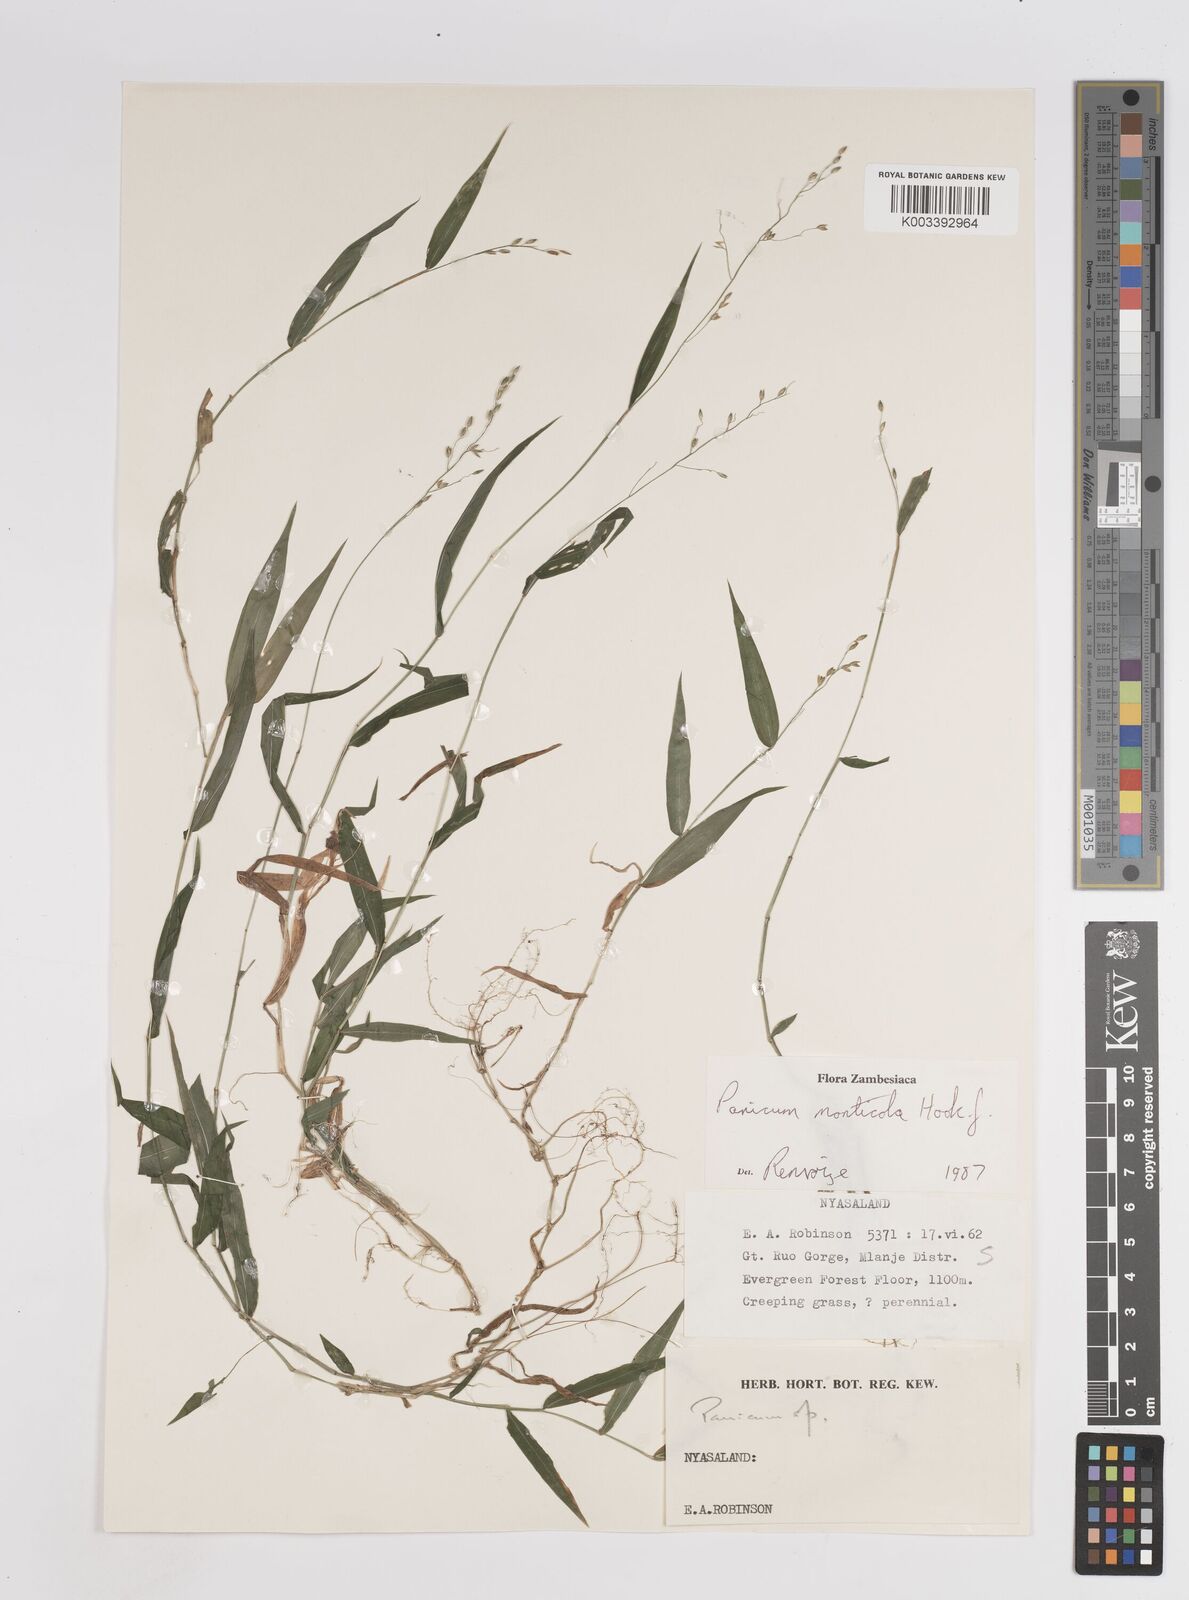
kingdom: Plantae
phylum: Tracheophyta
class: Liliopsida
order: Poales
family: Poaceae
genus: Panicum
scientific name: Panicum monticola
